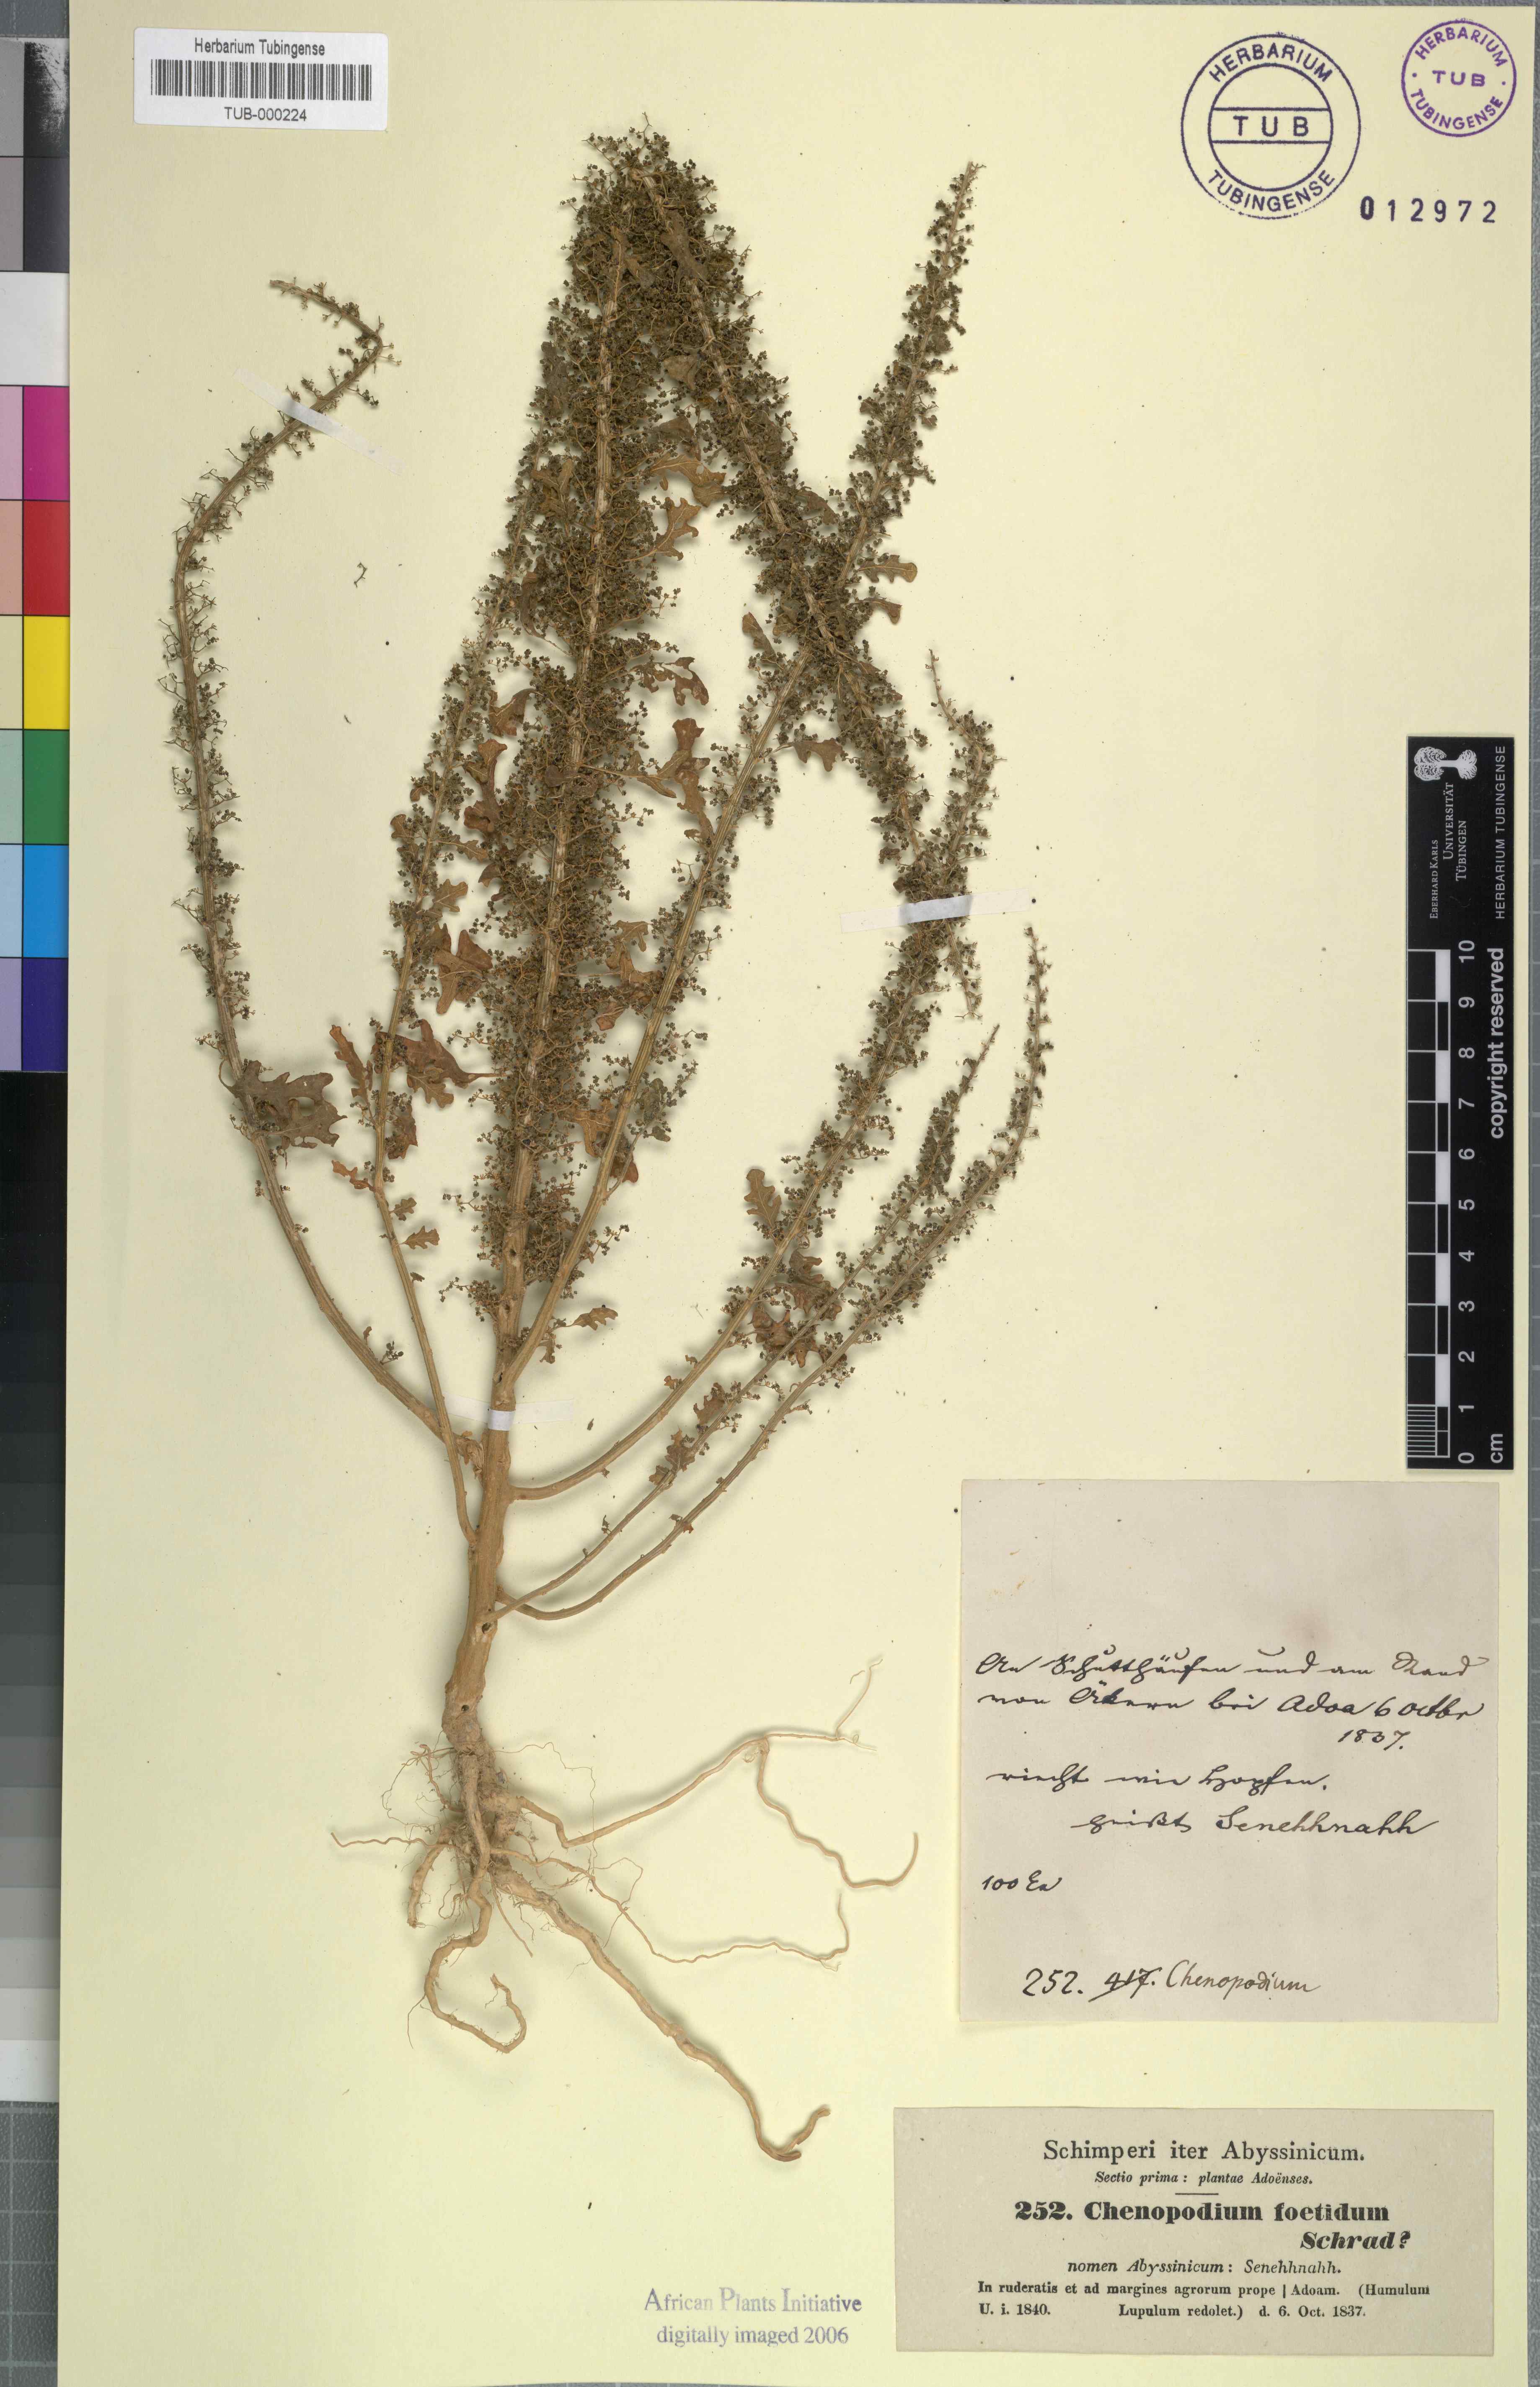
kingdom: Plantae
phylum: Tracheophyta
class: Magnoliopsida
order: Caryophyllales
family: Amaranthaceae
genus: Dysphania
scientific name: Dysphania schraderiana
